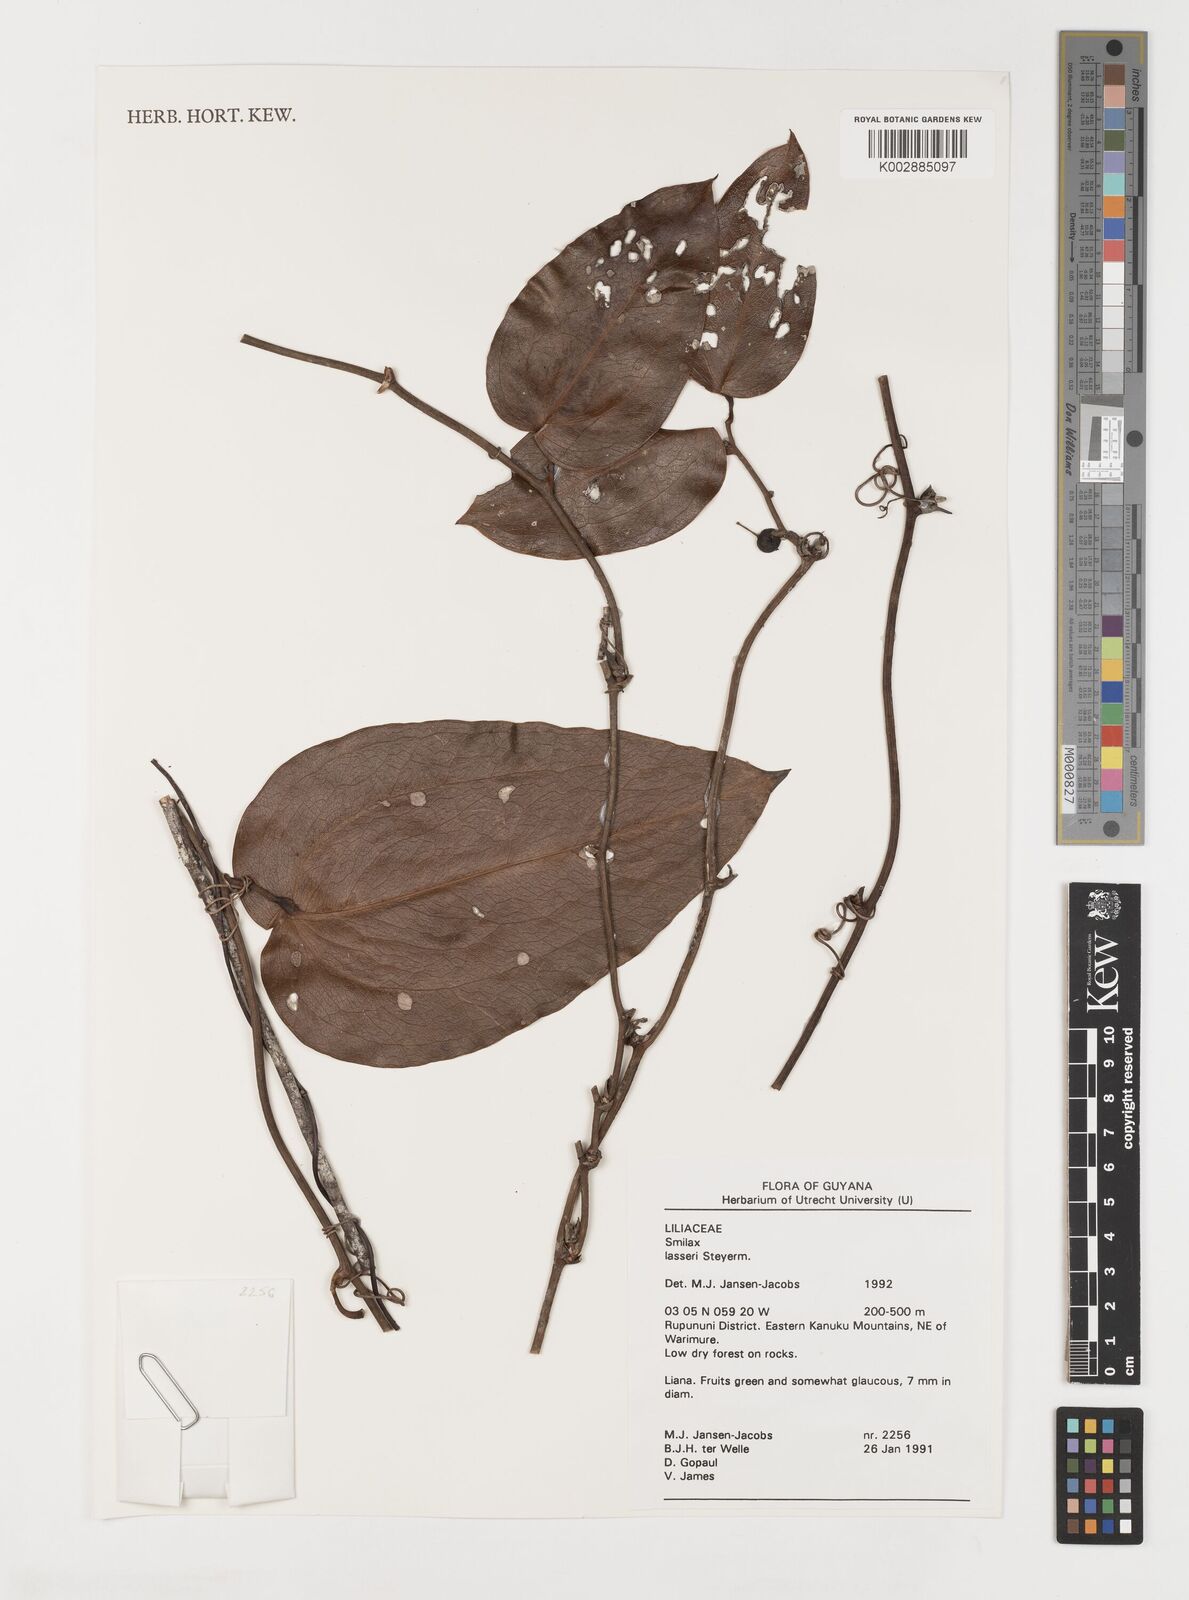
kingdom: Plantae
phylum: Tracheophyta
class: Liliopsida
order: Liliales
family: Smilacaceae
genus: Smilax
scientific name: Smilax domingensis
